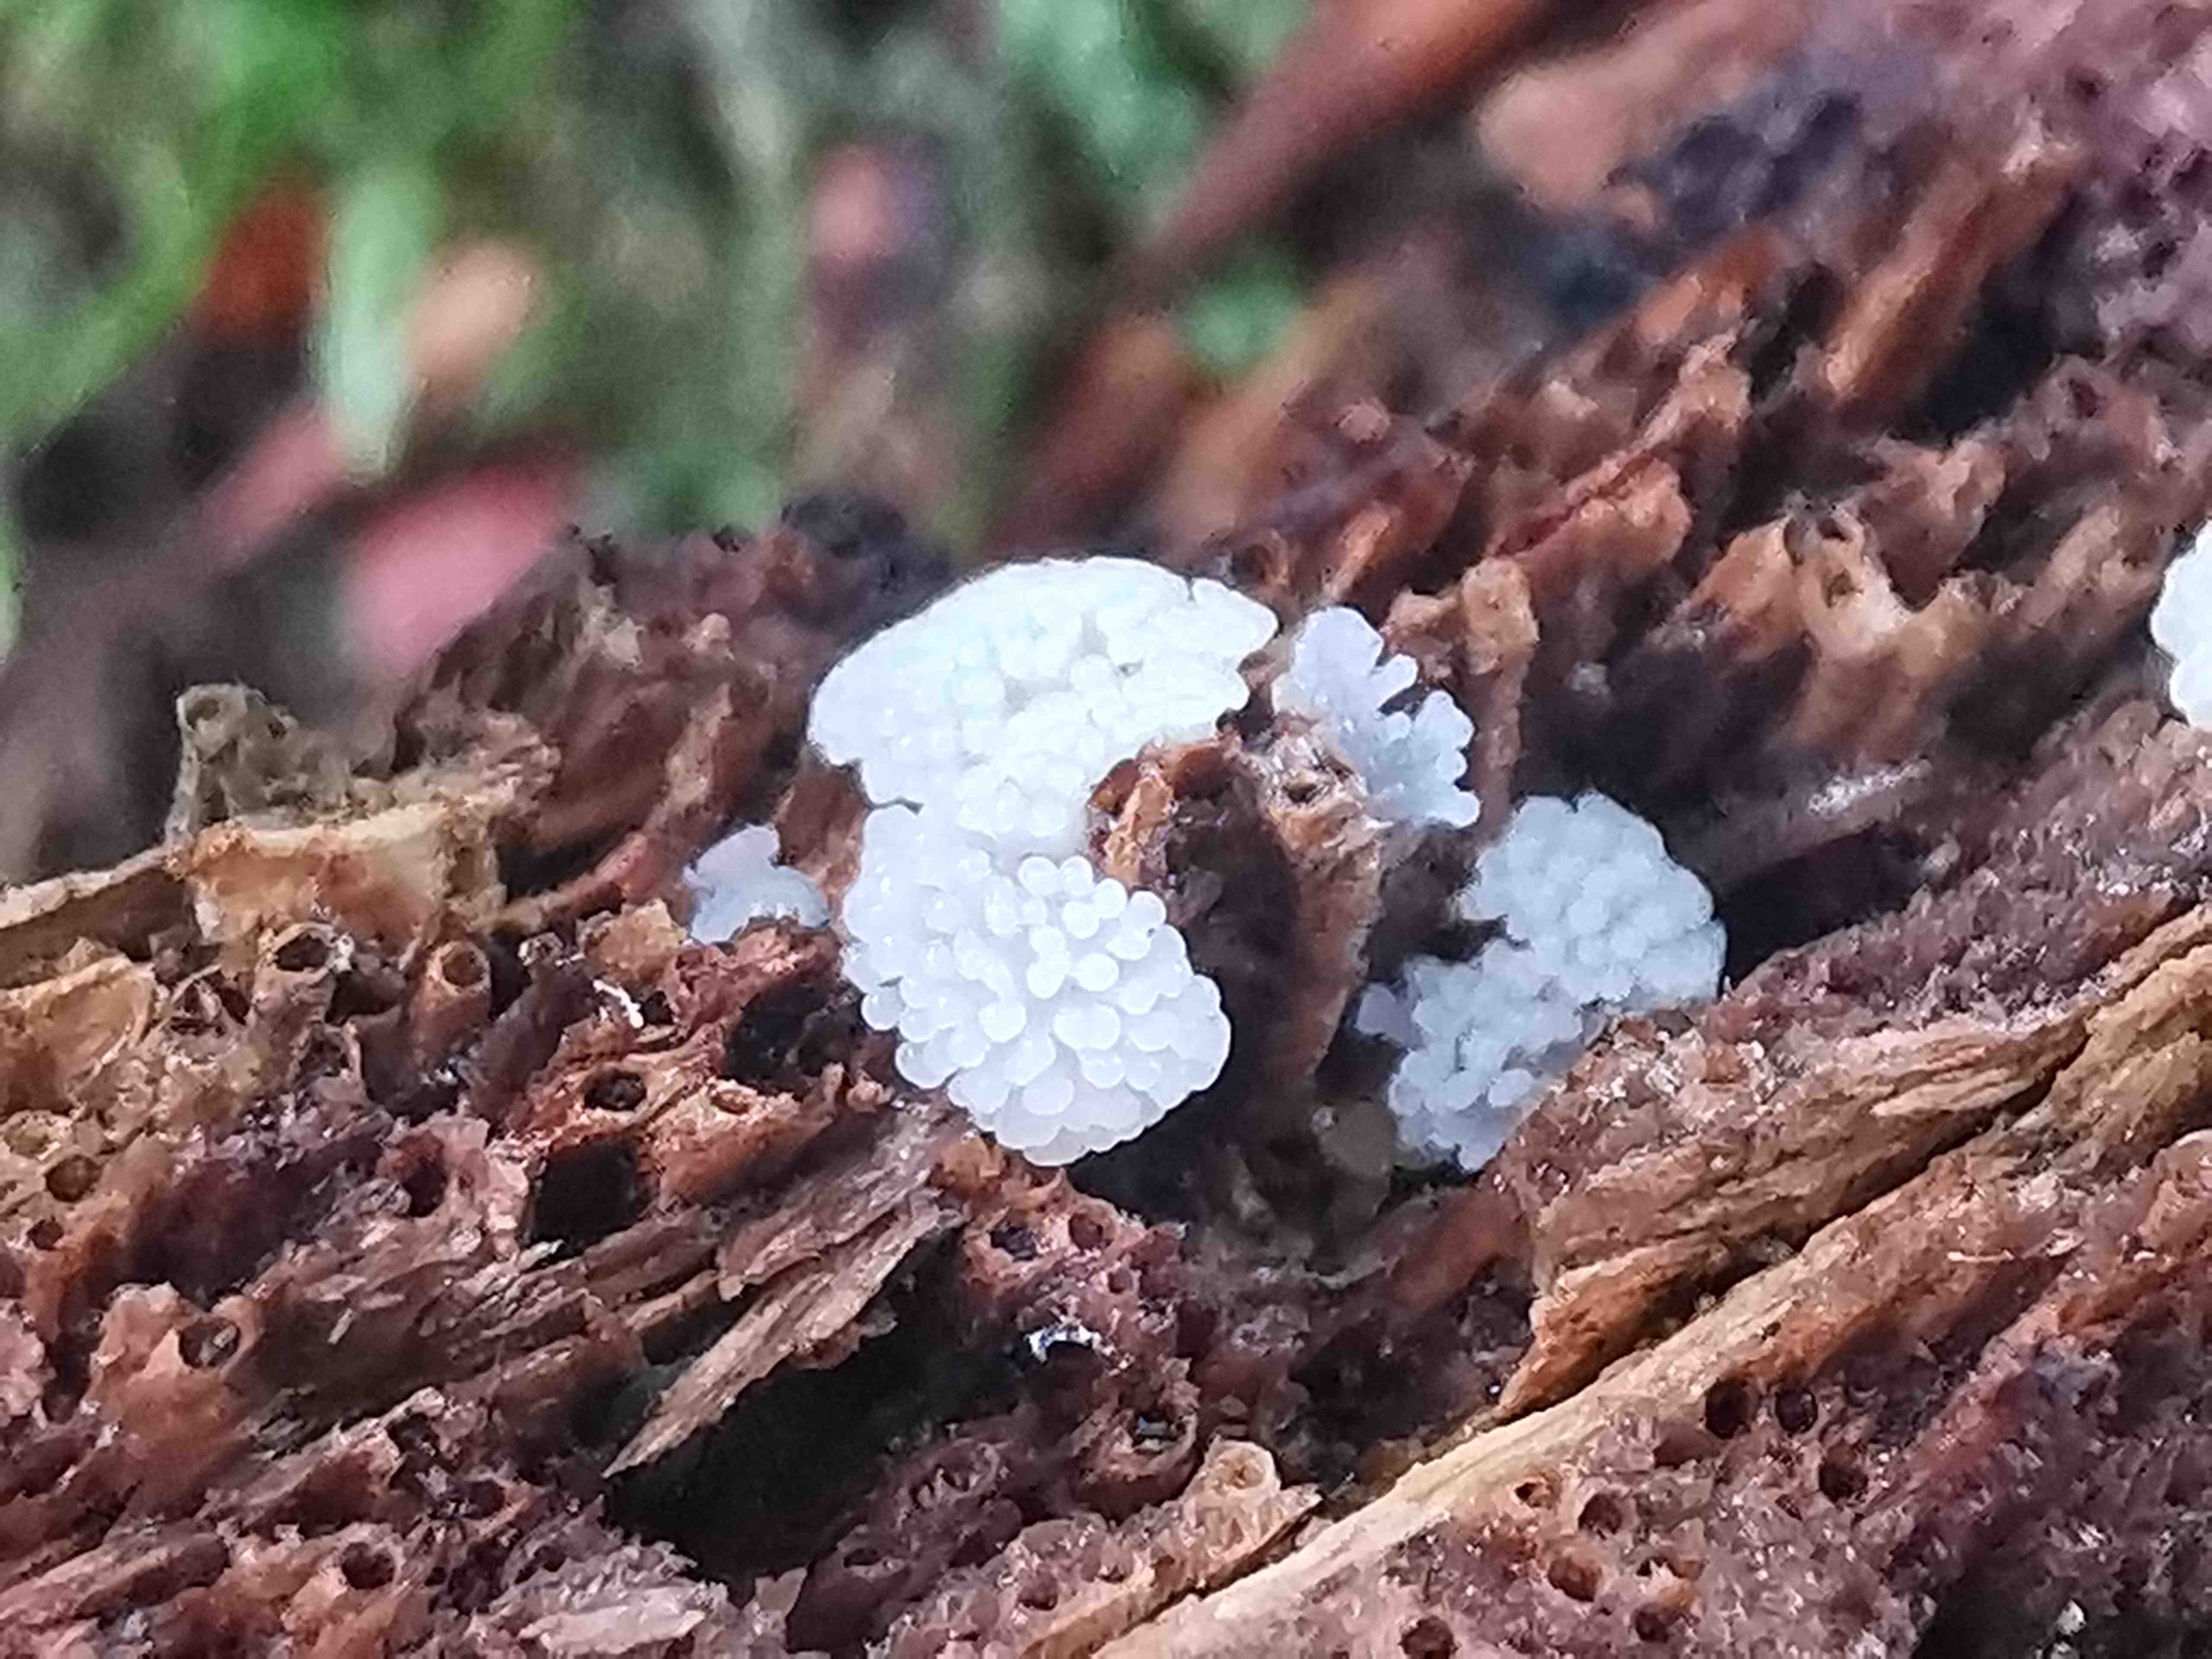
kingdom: Protozoa
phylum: Mycetozoa
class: Protosteliomycetes
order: Ceratiomyxales
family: Ceratiomyxaceae
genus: Ceratiomyxa
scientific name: Ceratiomyxa fruticulosa
